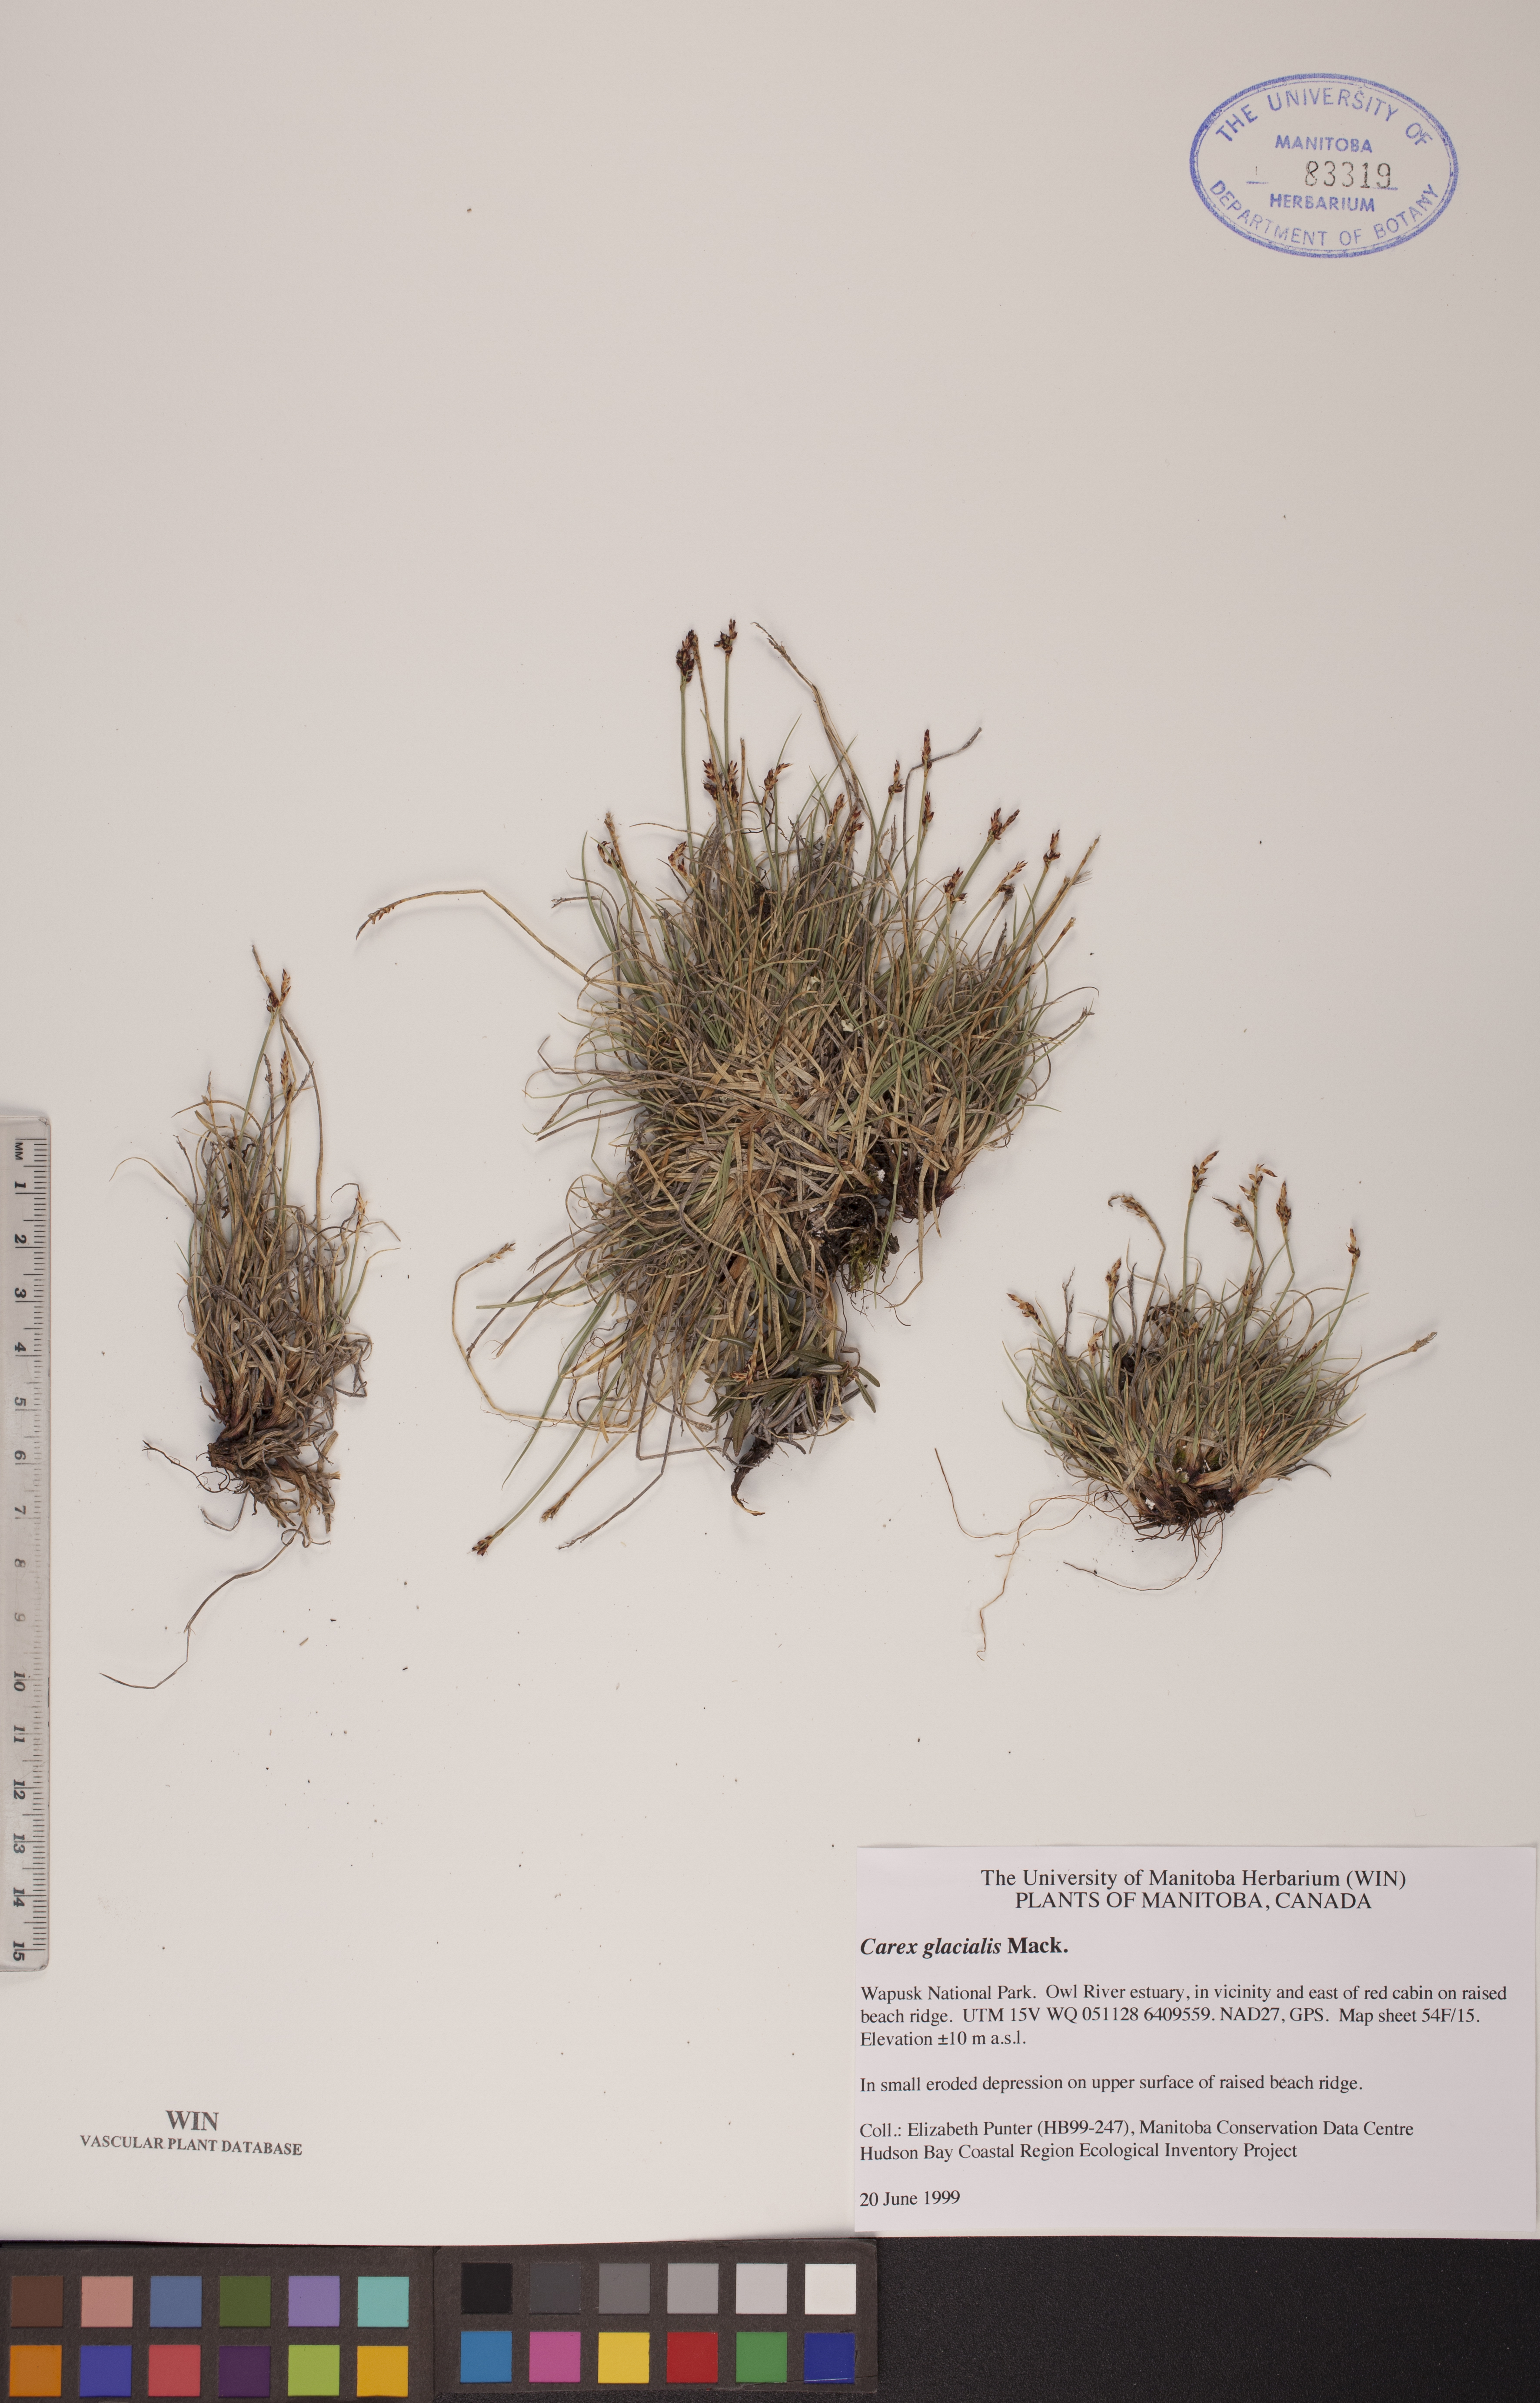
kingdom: Plantae
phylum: Tracheophyta
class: Liliopsida
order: Poales
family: Cyperaceae
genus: Carex
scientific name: Carex glacialis
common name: Newfoundland sedge
